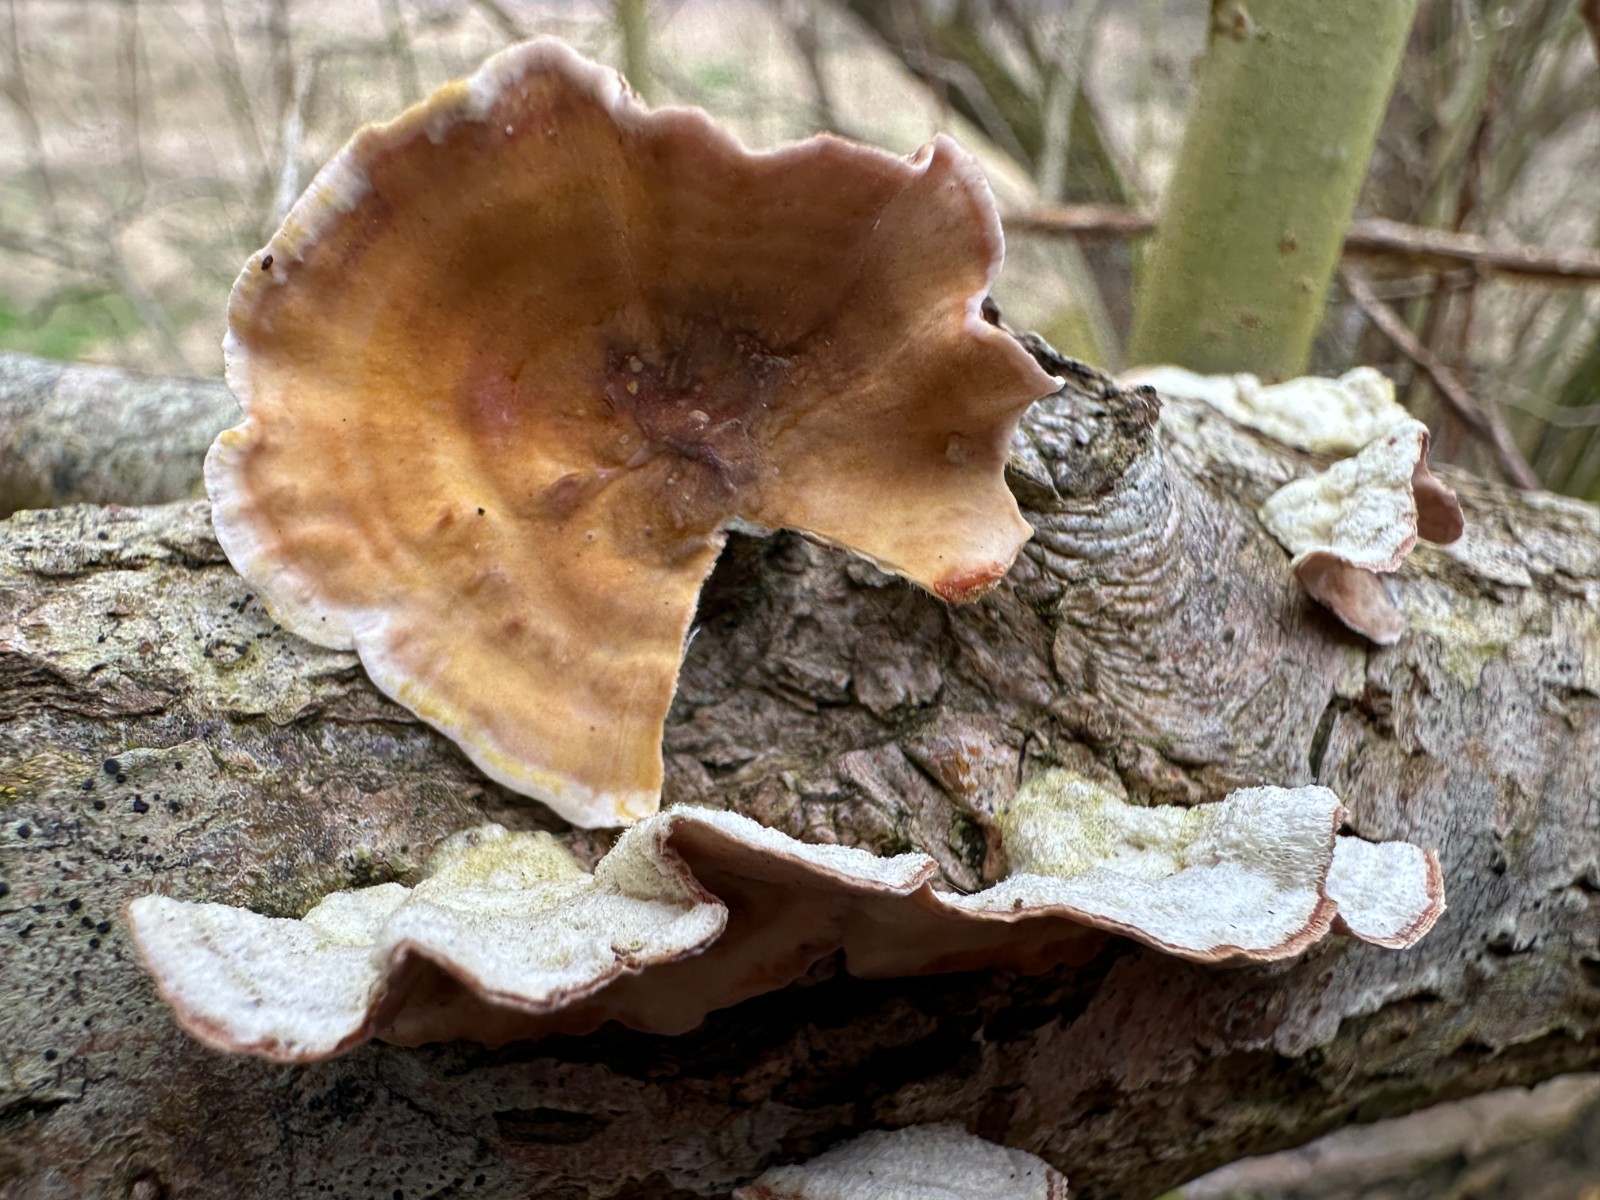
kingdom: Fungi
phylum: Basidiomycota
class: Agaricomycetes
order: Russulales
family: Stereaceae
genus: Stereum
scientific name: Stereum hirsutum
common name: håret lædersvamp
